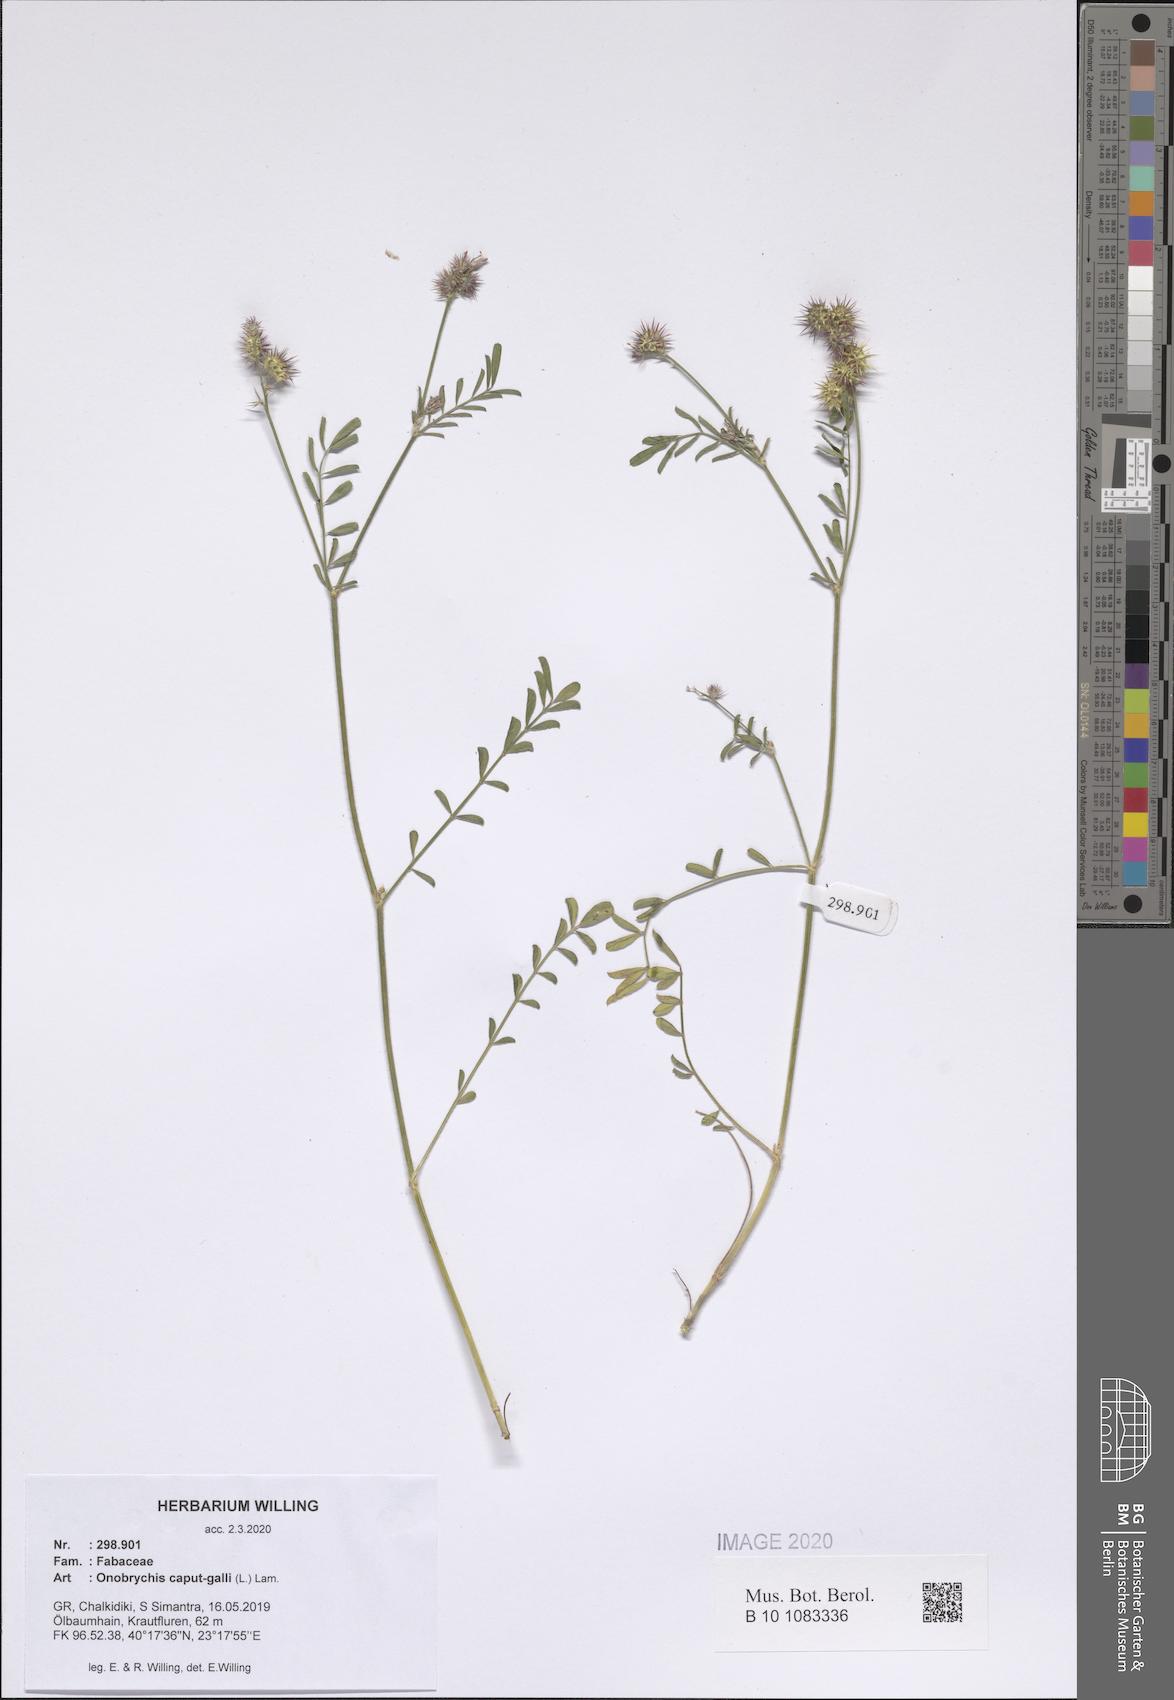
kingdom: Plantae
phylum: Tracheophyta
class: Magnoliopsida
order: Fabales
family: Fabaceae
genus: Onobrychis
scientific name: Onobrychis caput-galli
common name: Cockscomb sainfoin
